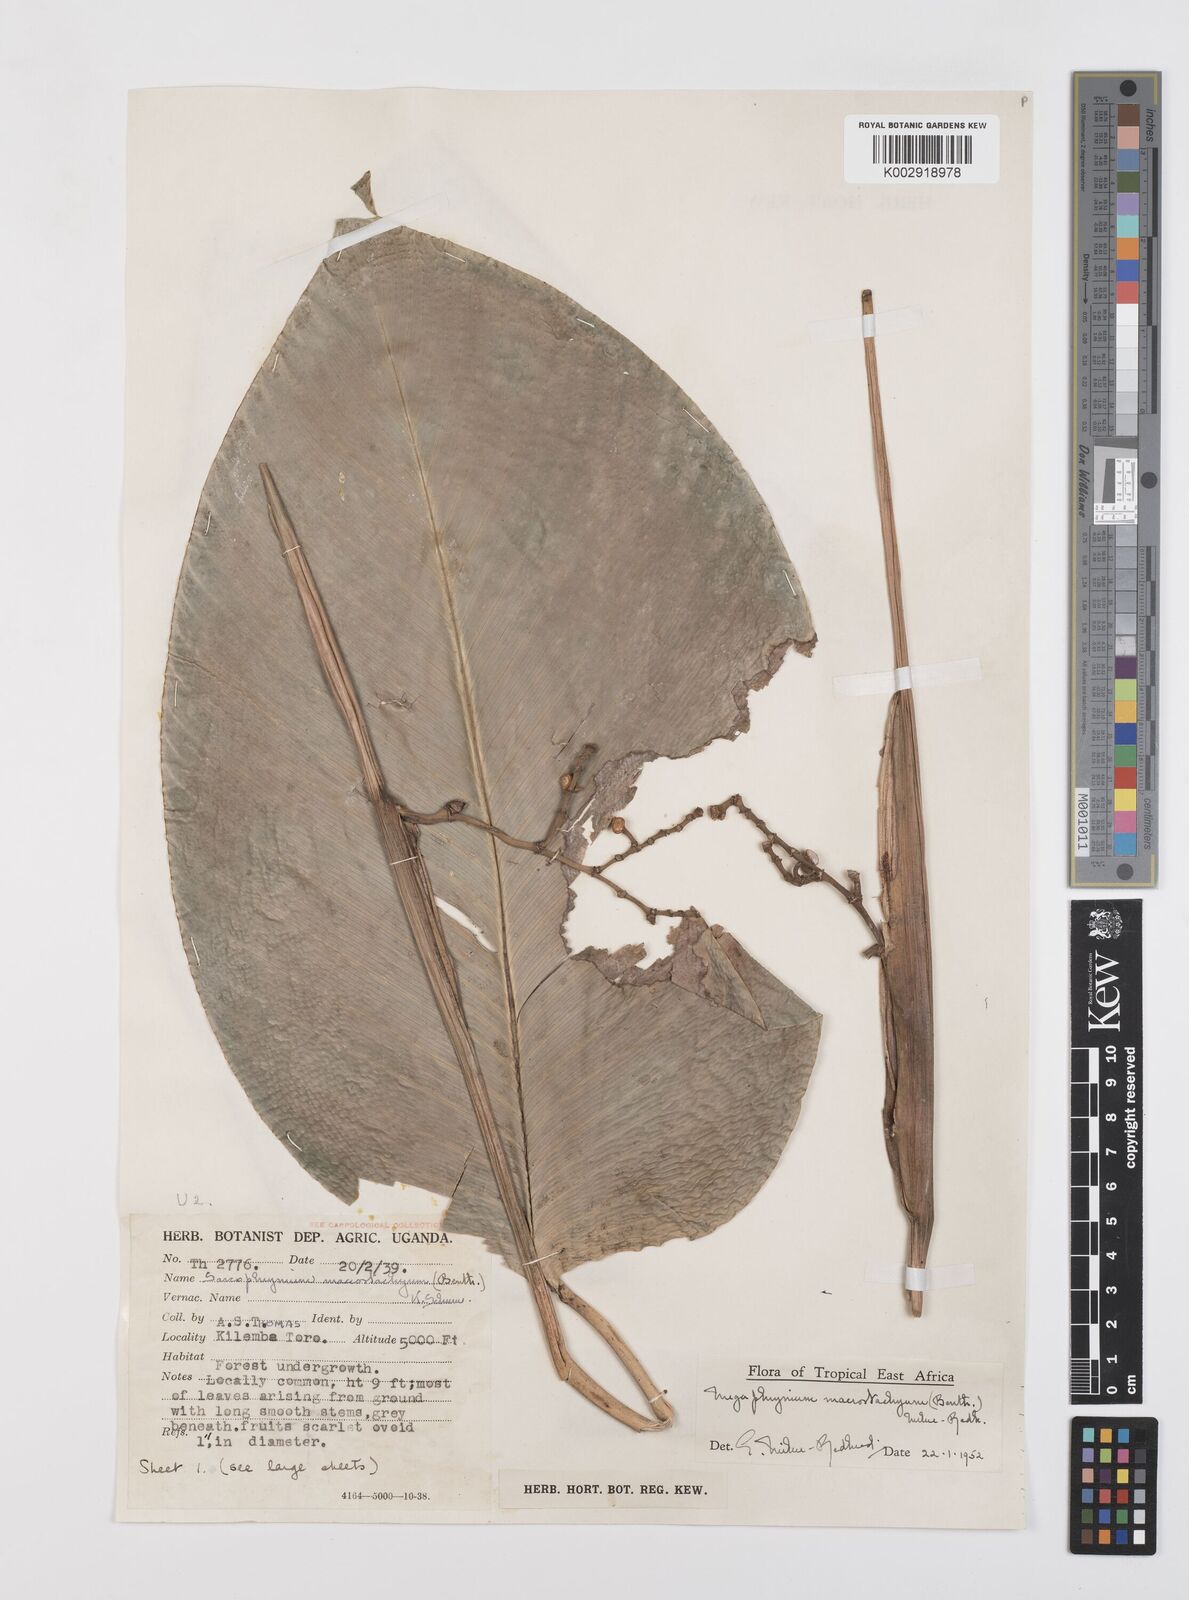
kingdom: Plantae
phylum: Tracheophyta
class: Liliopsida
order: Zingiberales
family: Marantaceae
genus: Megaphrynium
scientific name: Megaphrynium macrostachyum
